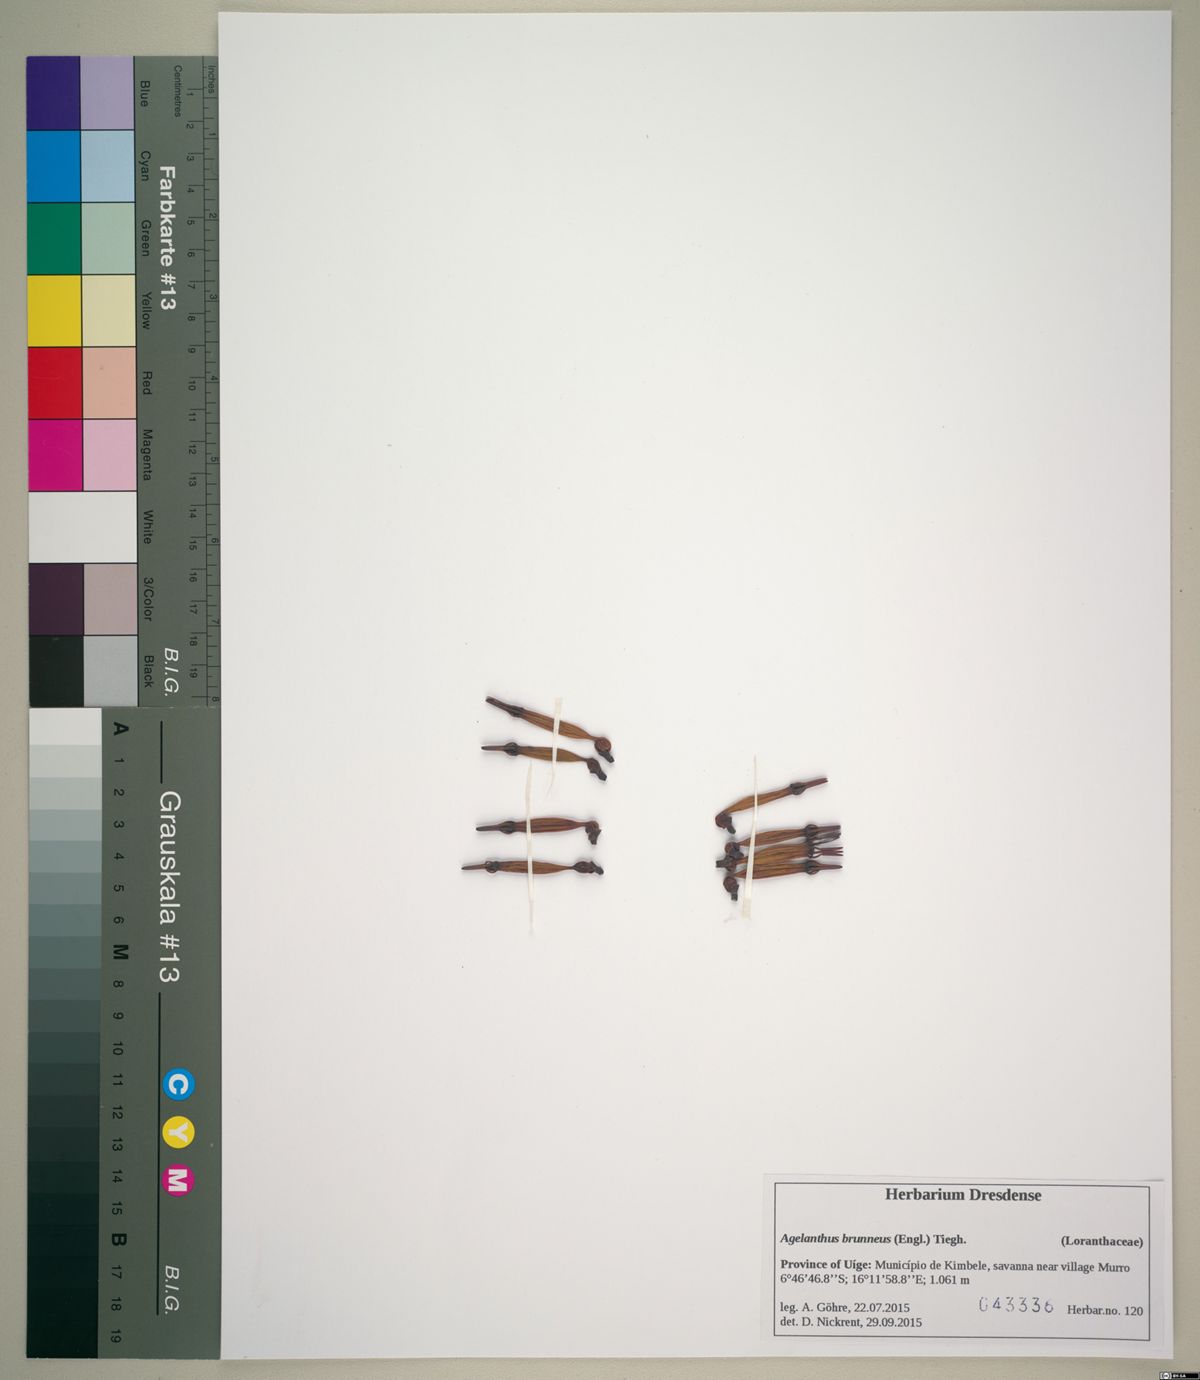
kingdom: Plantae
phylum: Tracheophyta
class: Magnoliopsida
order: Santalales
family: Loranthaceae
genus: Agelanthus
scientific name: Agelanthus brunneus
